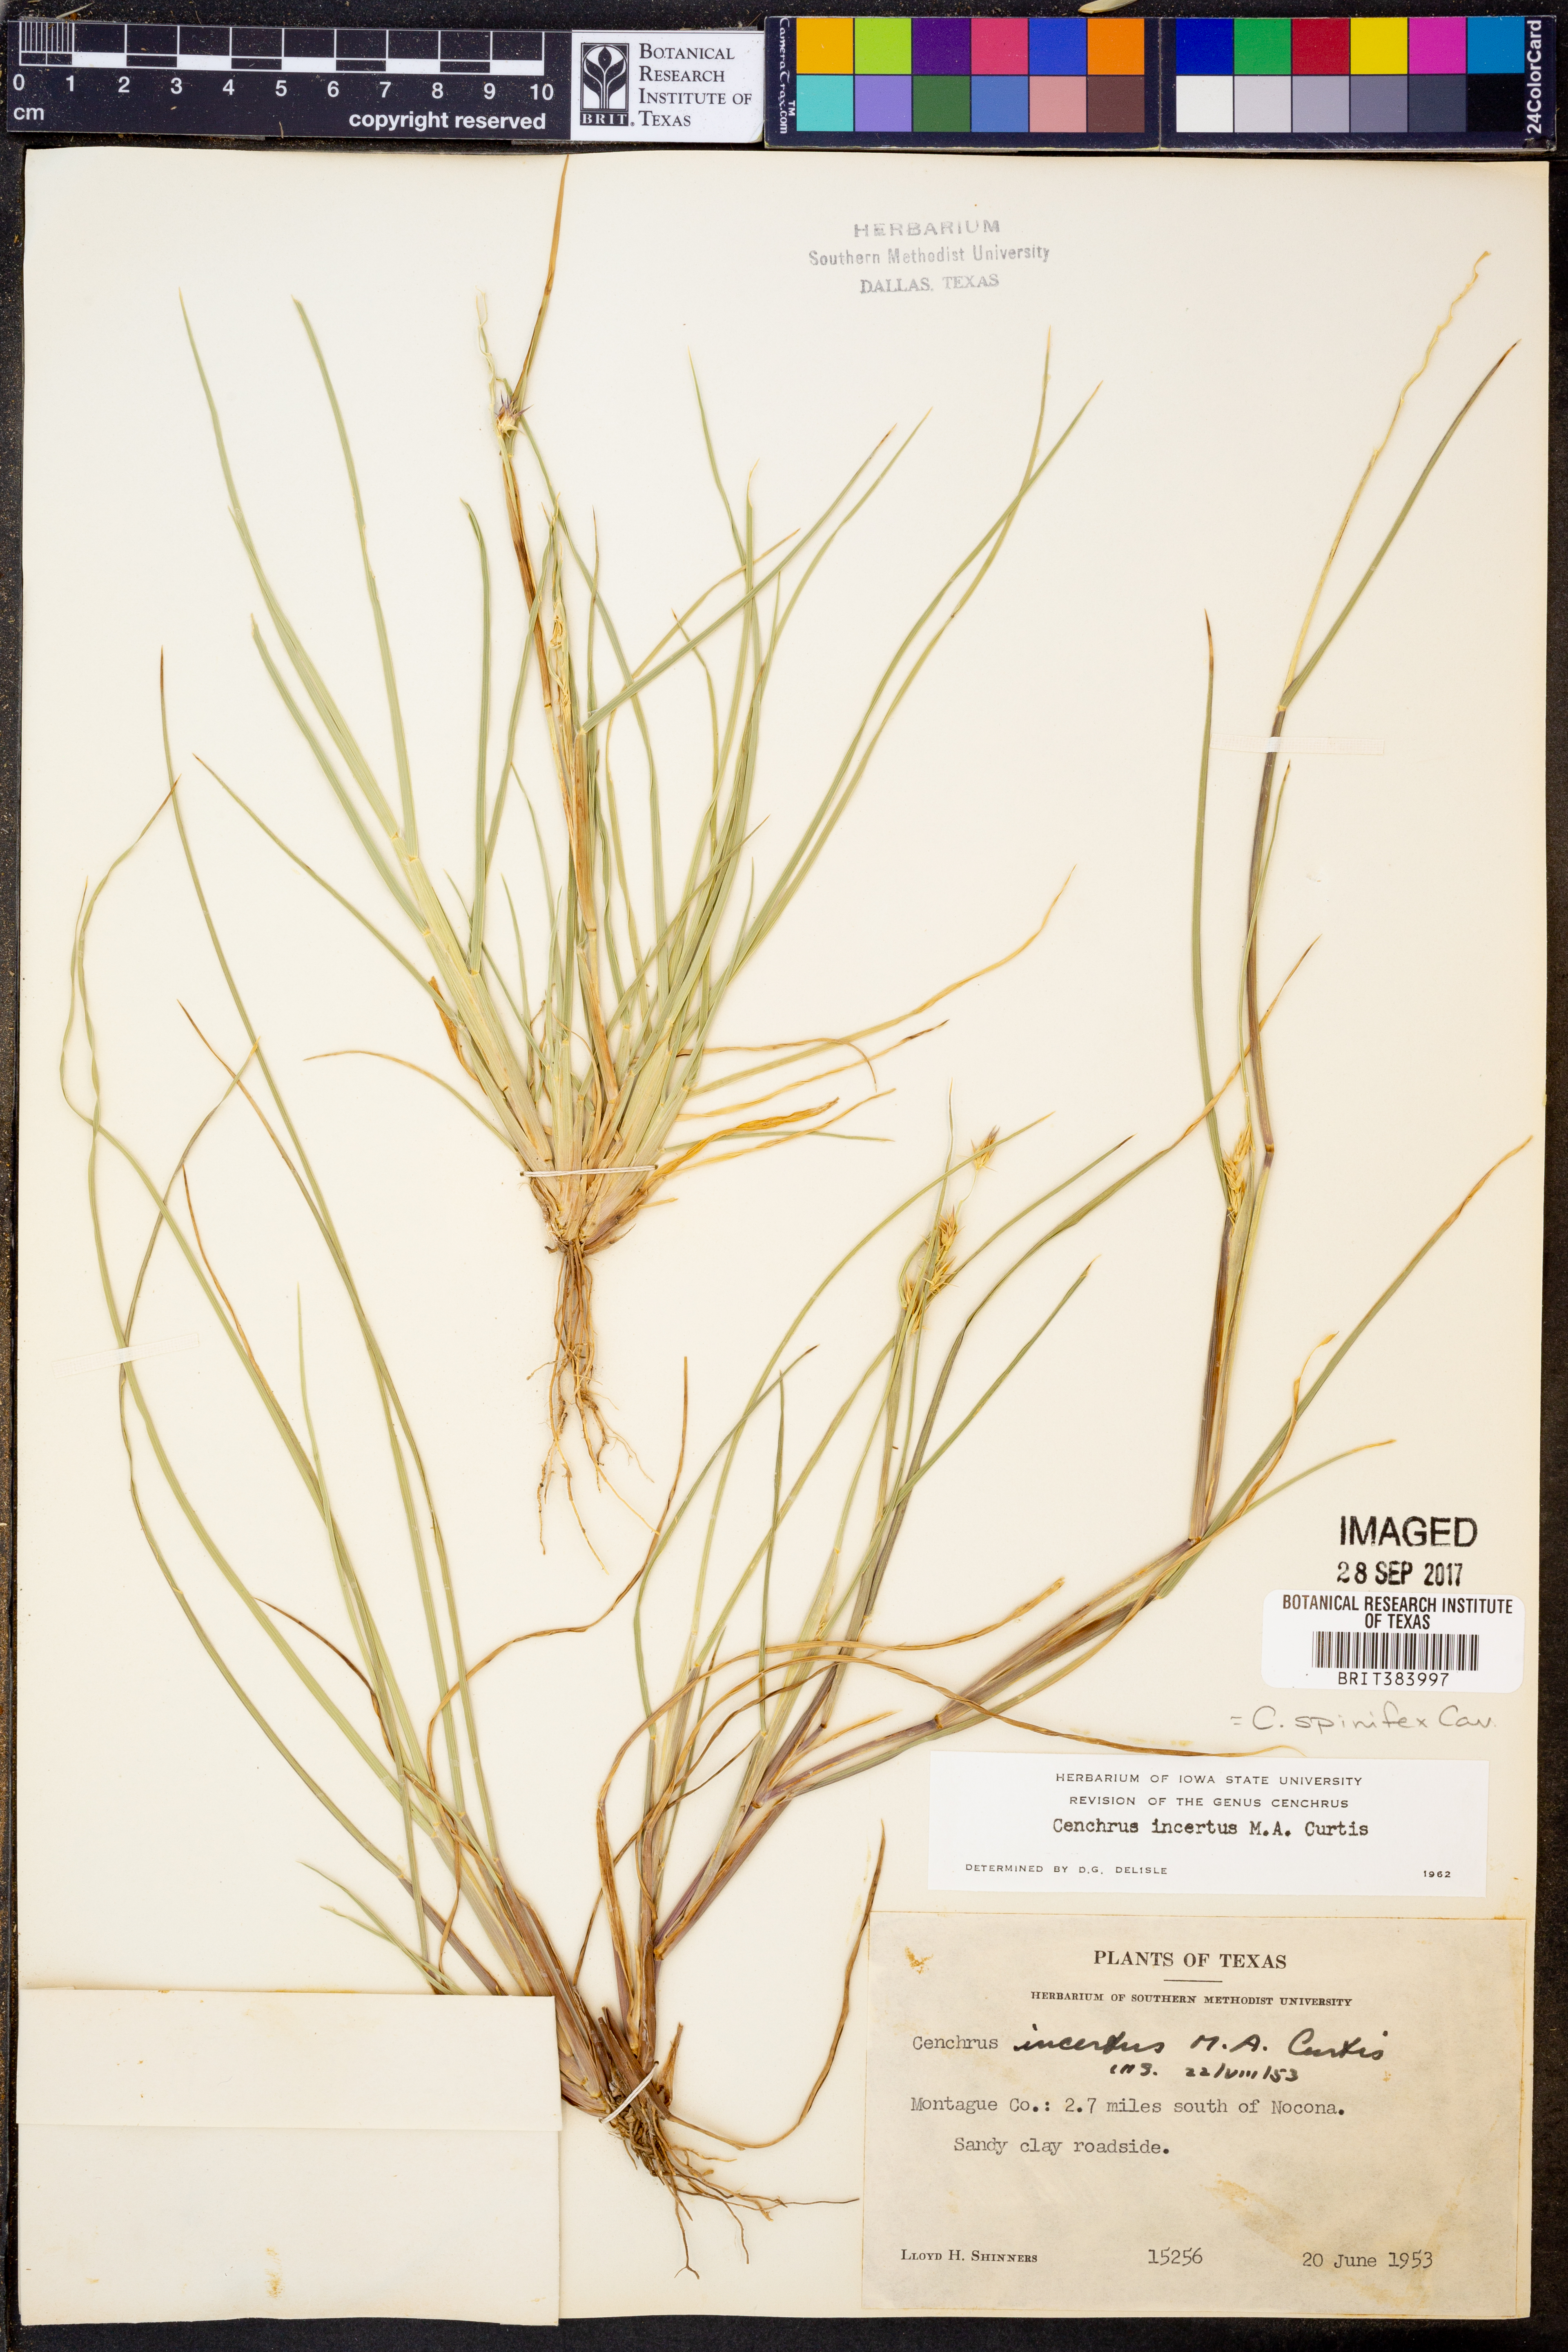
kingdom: Plantae
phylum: Tracheophyta
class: Liliopsida
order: Poales
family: Poaceae
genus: Cenchrus
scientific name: Cenchrus spinifex
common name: Coast sandbur
